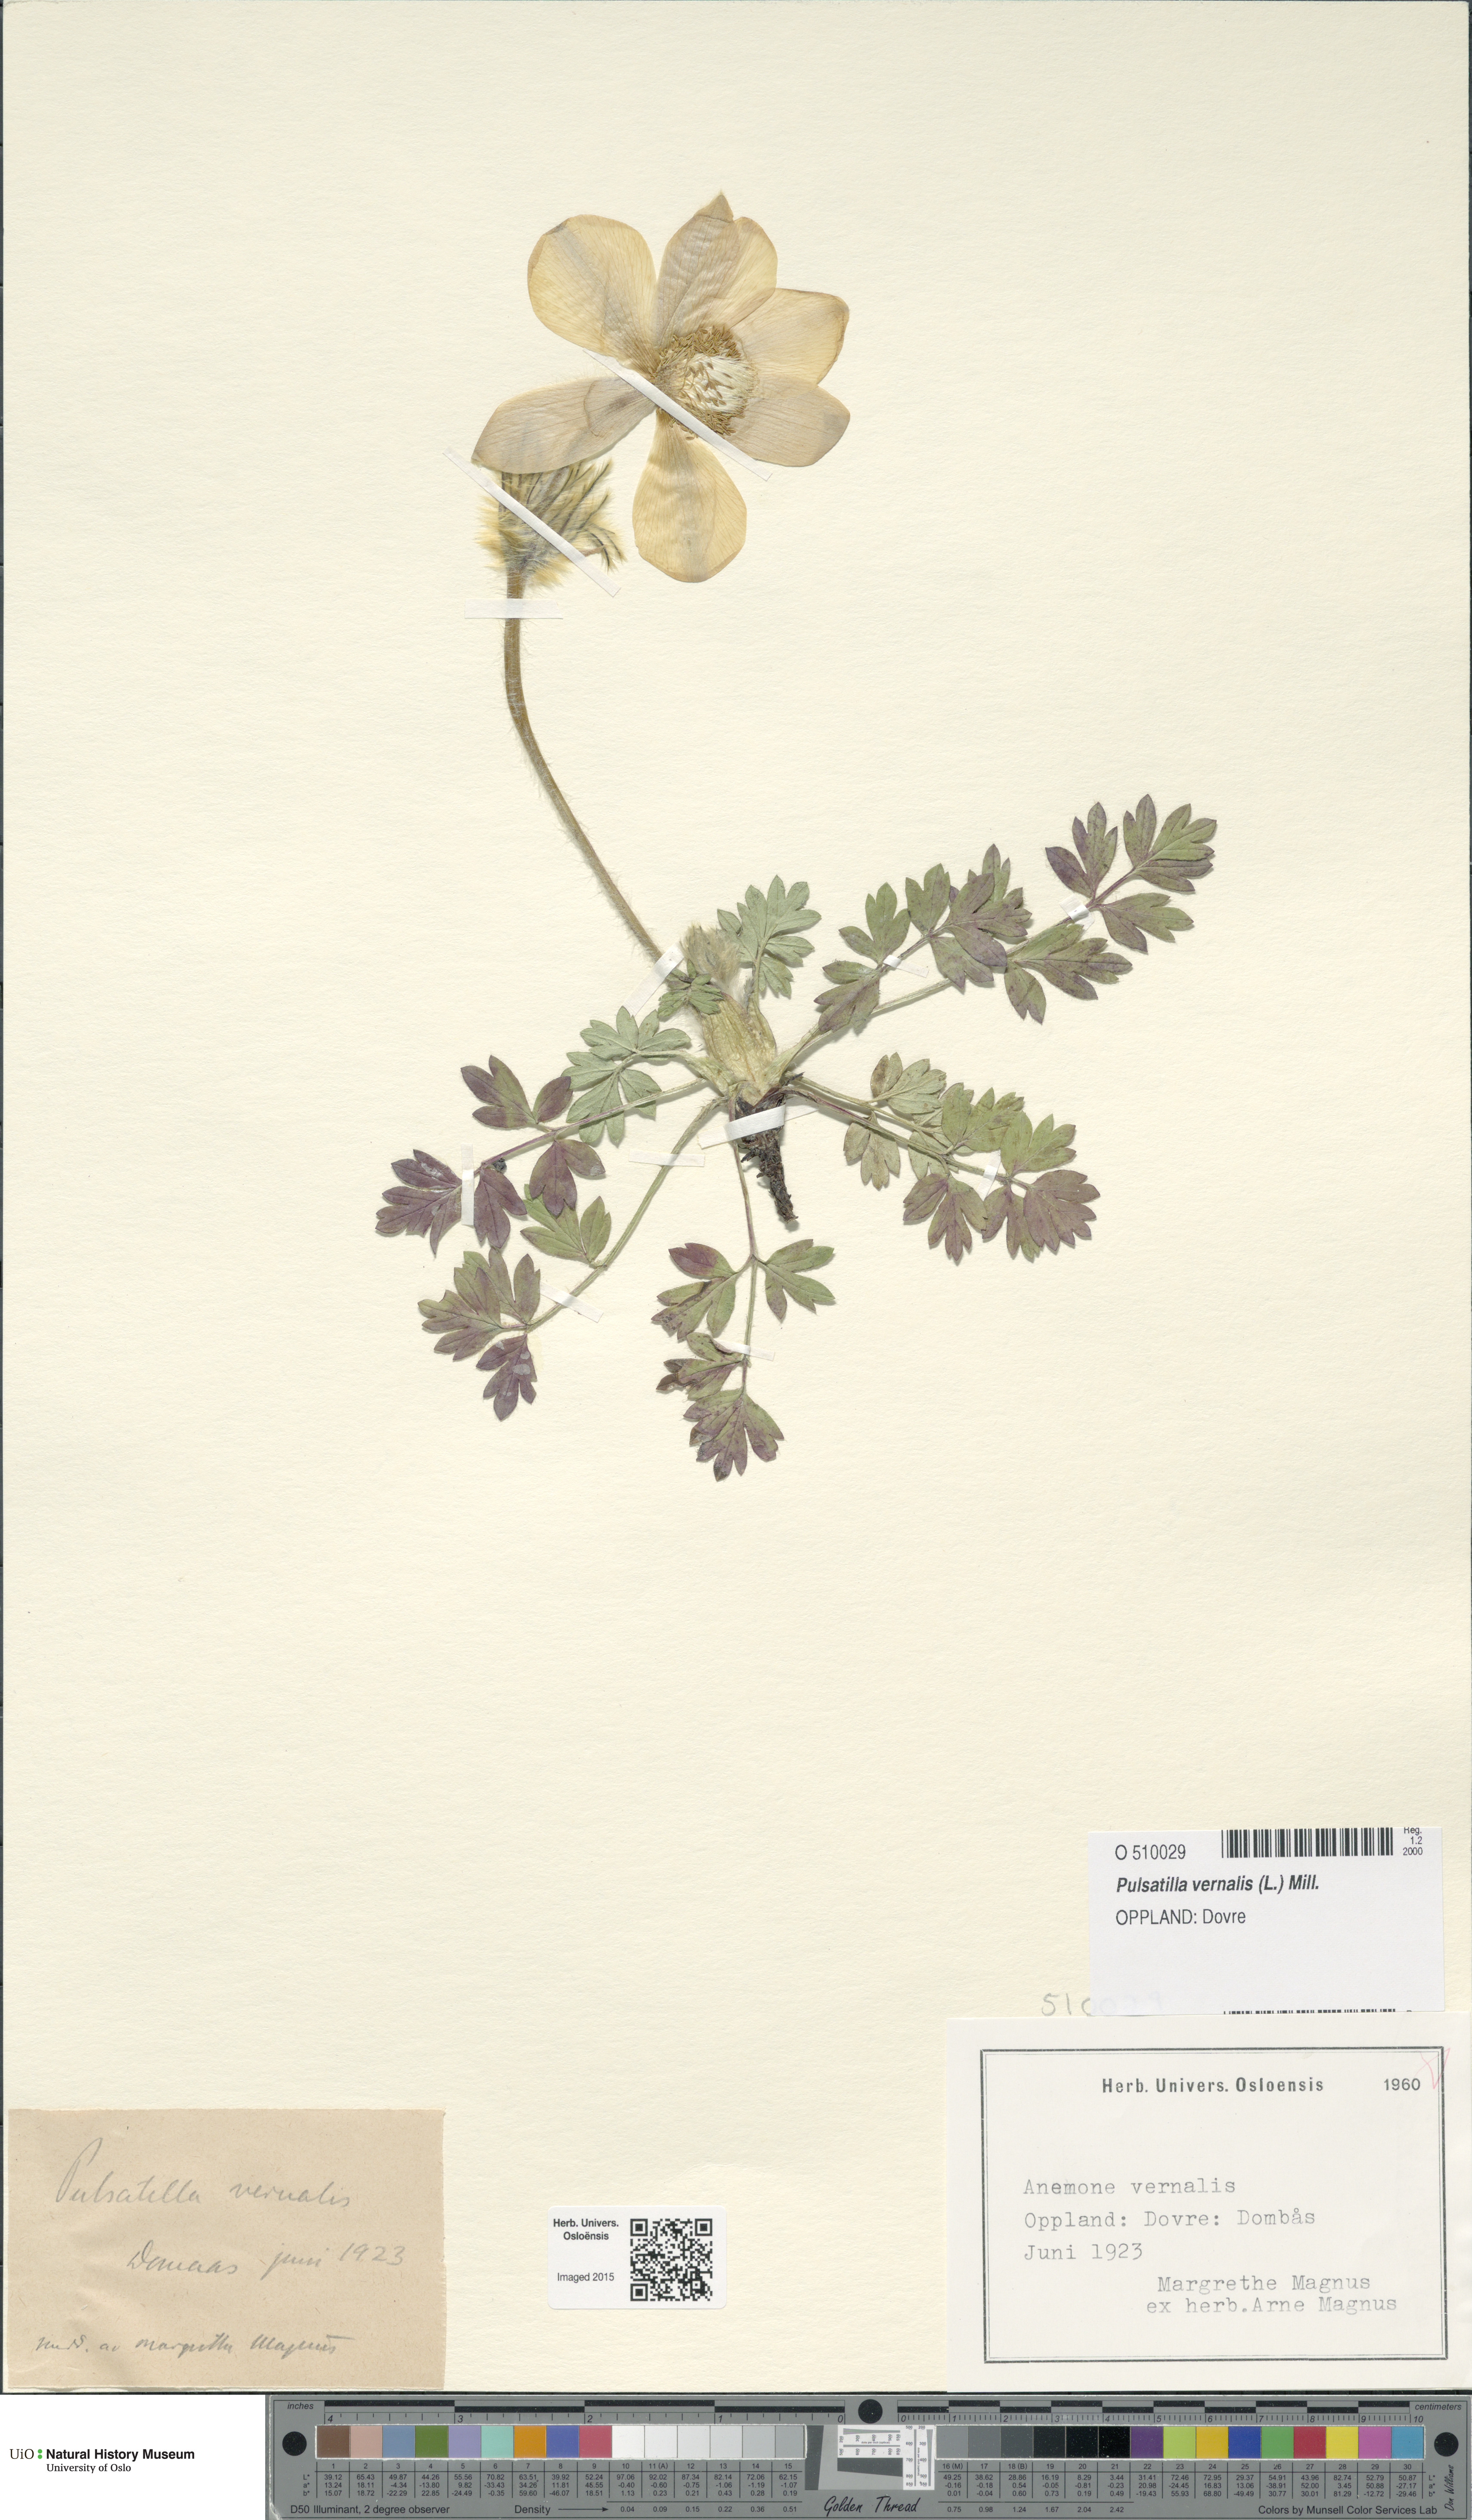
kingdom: Plantae
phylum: Tracheophyta
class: Magnoliopsida
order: Ranunculales
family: Ranunculaceae
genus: Pulsatilla
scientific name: Pulsatilla vernalis
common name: Spring pasque flower
